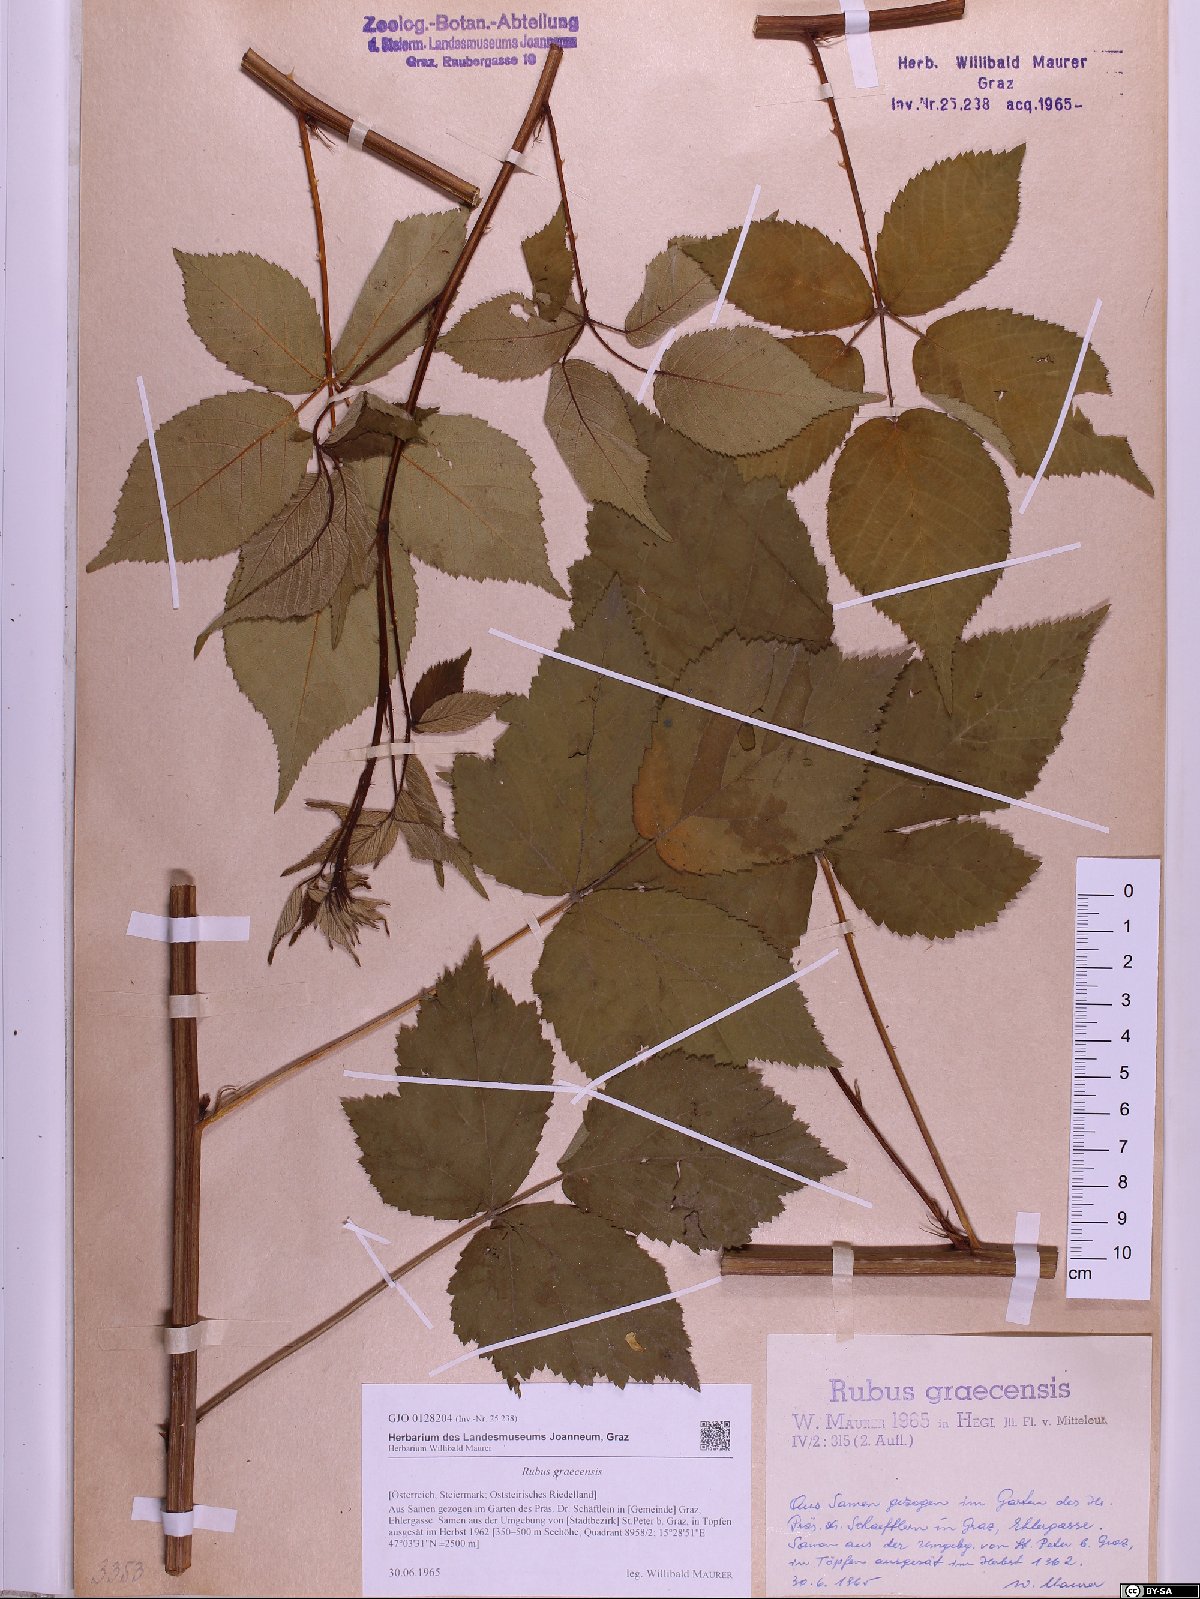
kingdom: Plantae
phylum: Tracheophyta
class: Magnoliopsida
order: Rosales
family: Rosaceae
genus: Rubus
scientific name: Rubus graecensis
